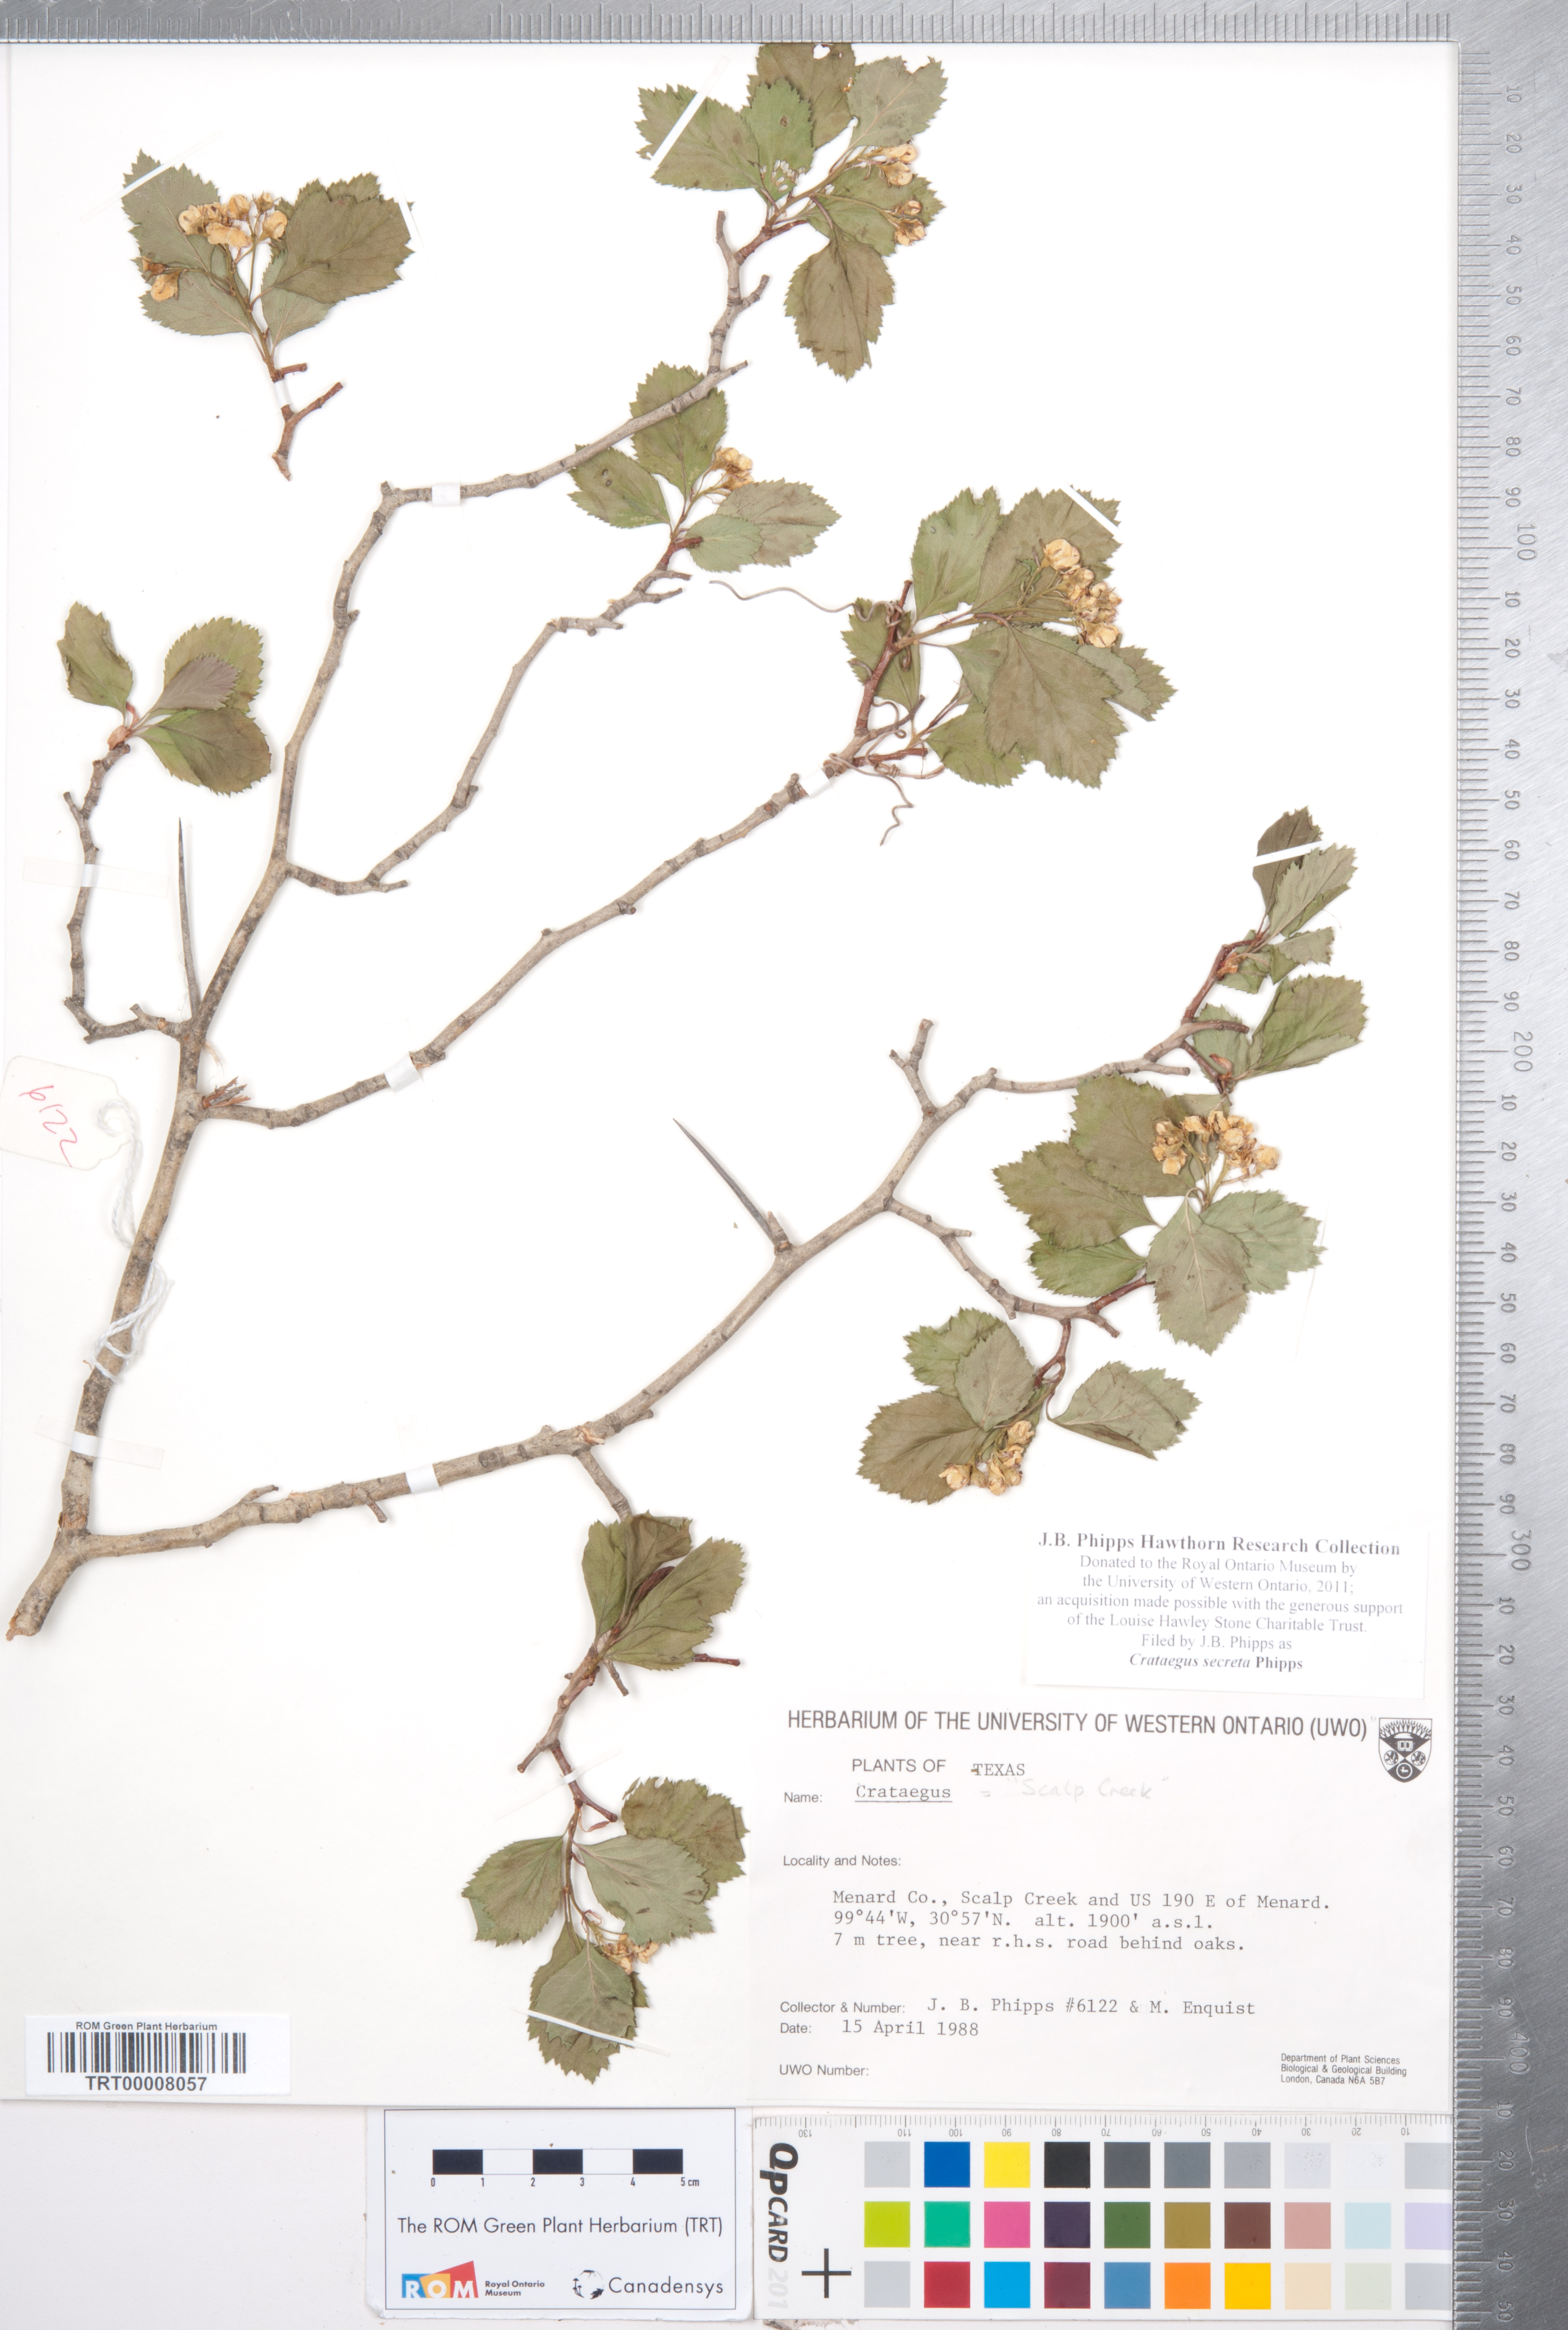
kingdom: Plantae
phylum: Tracheophyta
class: Magnoliopsida
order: Rosales
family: Rosaceae
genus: Crataegus
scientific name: Crataegus turnerorum
